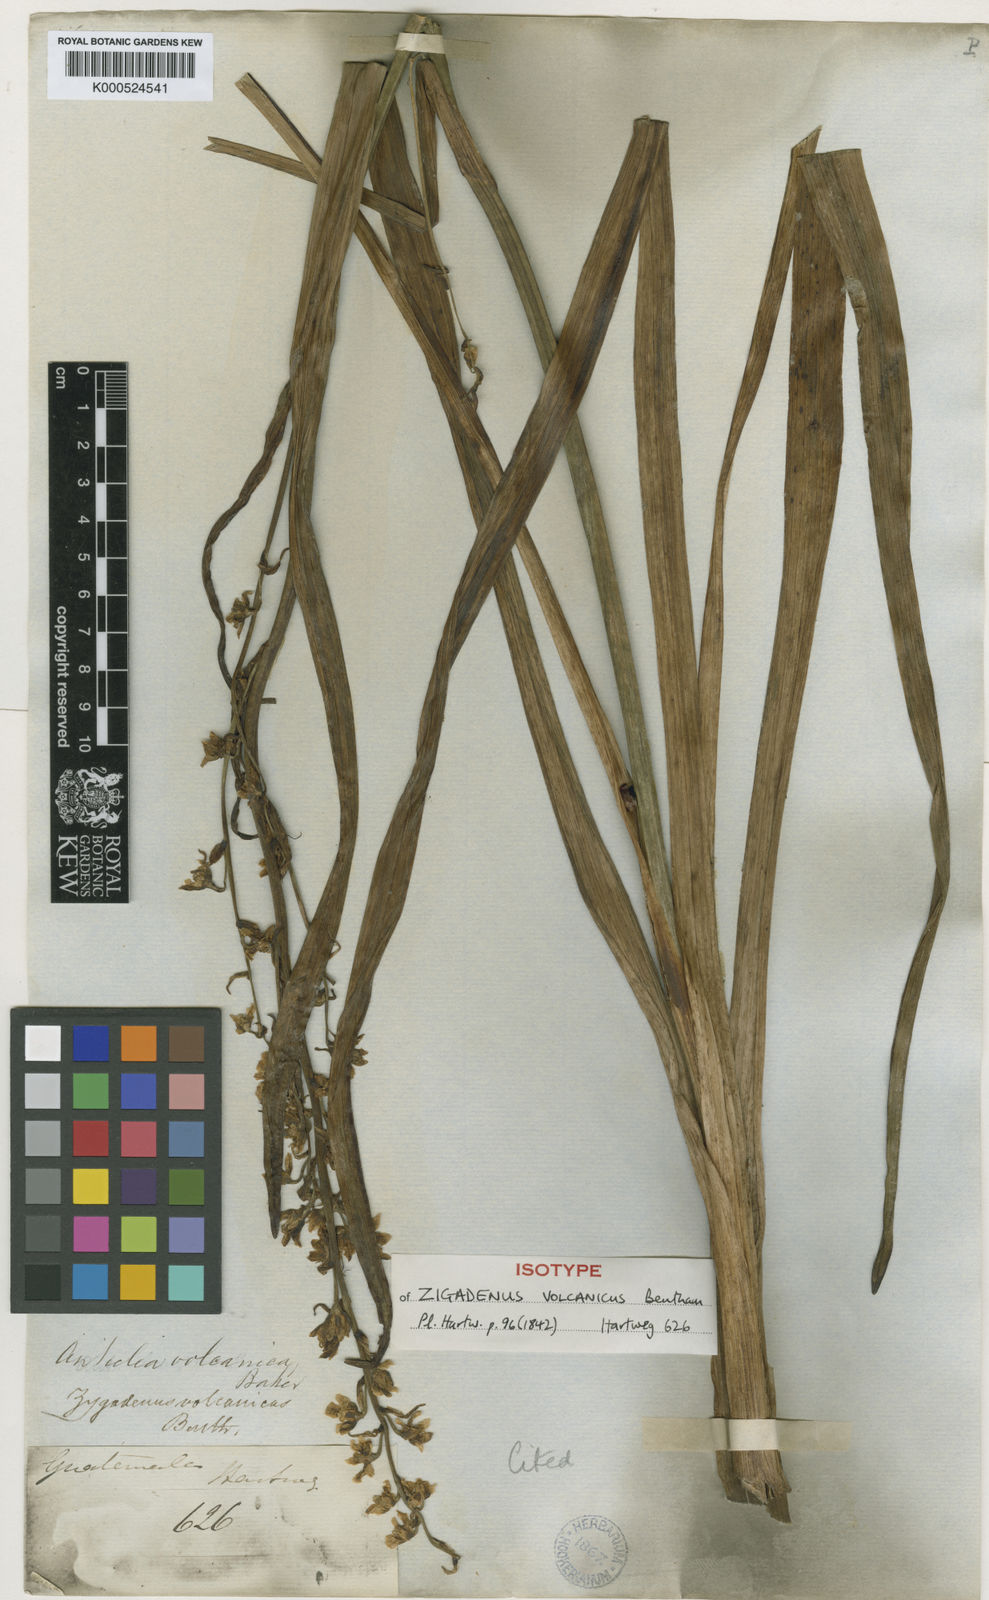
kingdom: Plantae
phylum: Tracheophyta
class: Liliopsida
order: Liliales
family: Melanthiaceae
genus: Anticlea
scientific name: Anticlea volcanica
